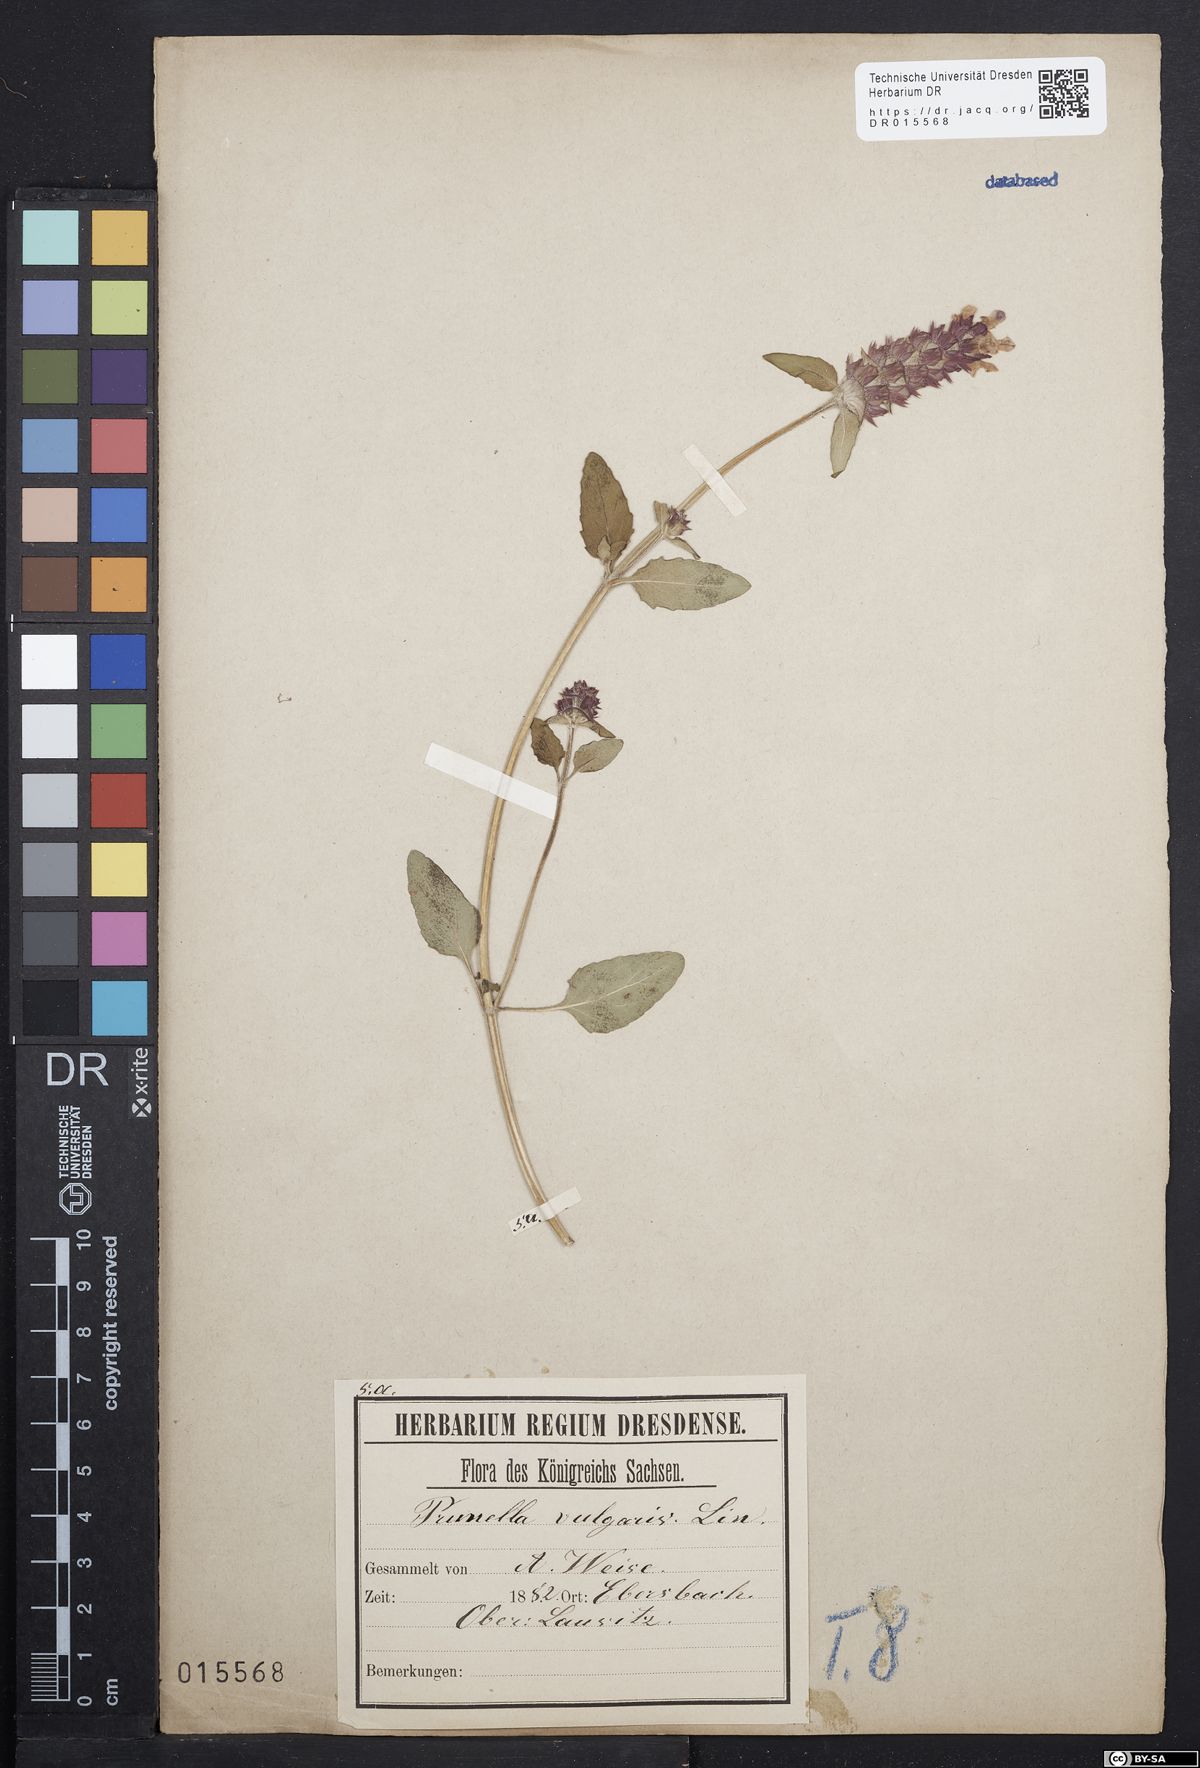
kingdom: Plantae
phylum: Tracheophyta
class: Magnoliopsida
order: Lamiales
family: Lamiaceae
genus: Prunella
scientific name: Prunella vulgaris
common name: Heal-all
